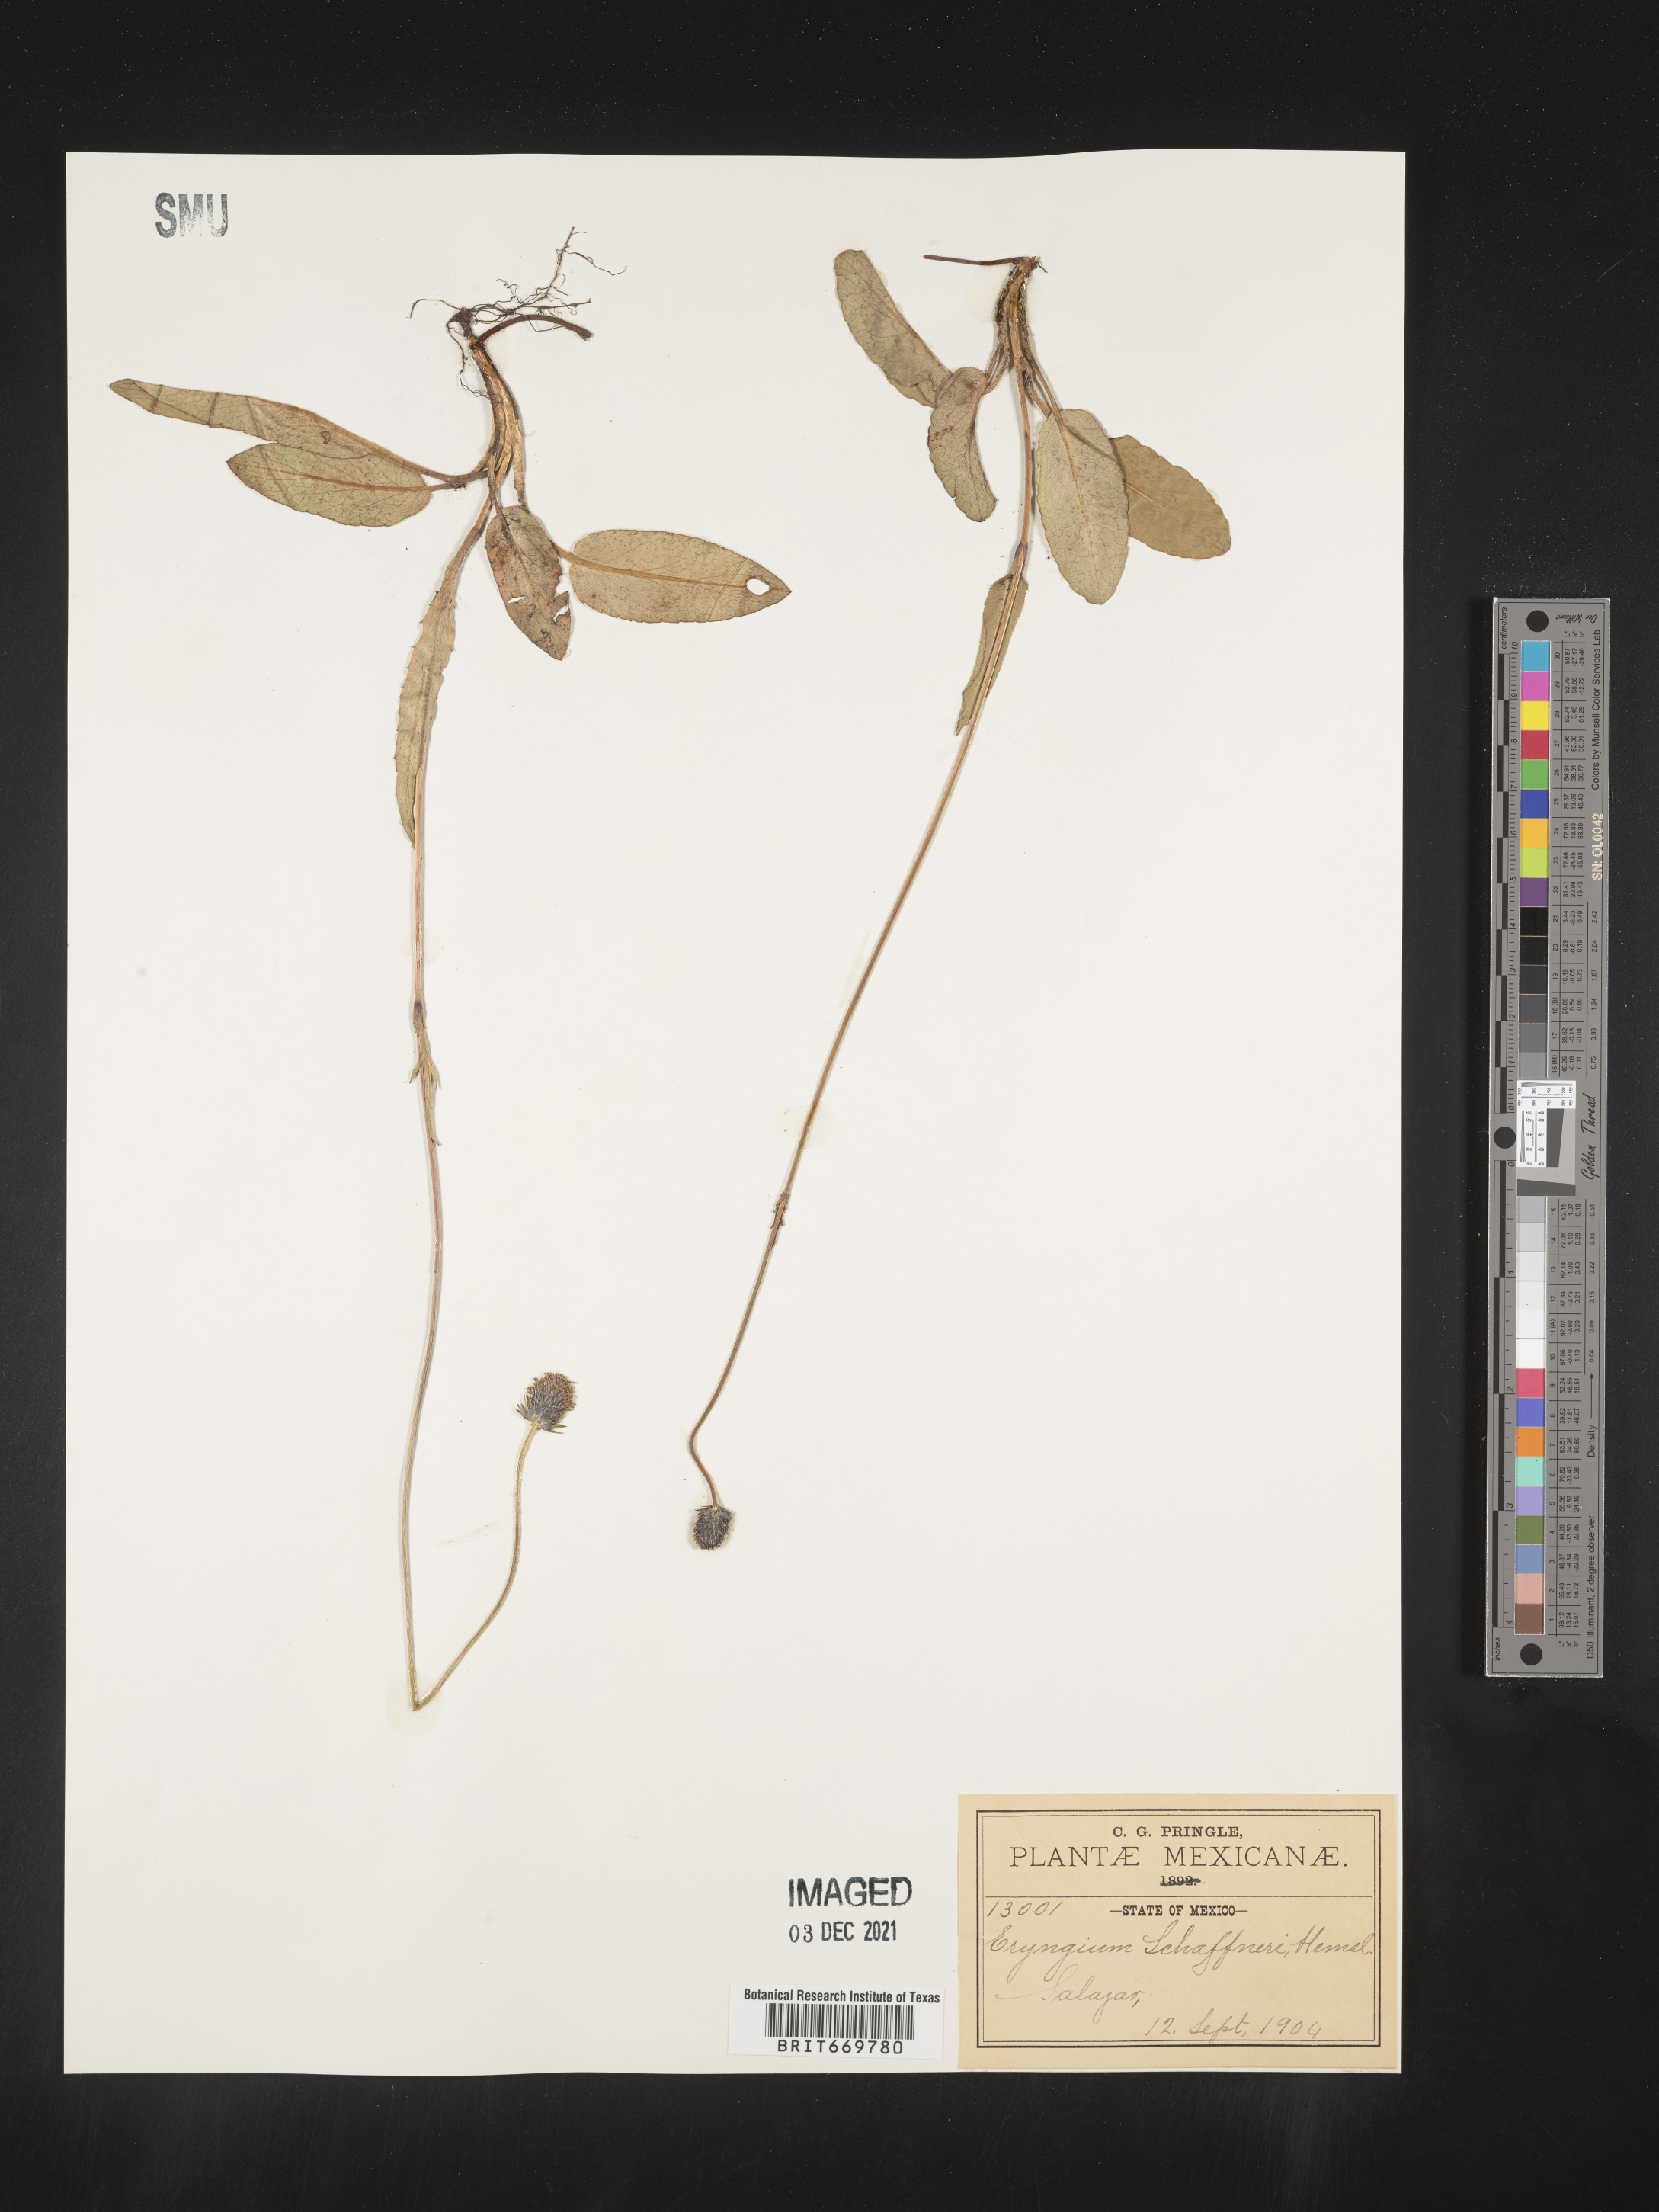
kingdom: Plantae
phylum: Tracheophyta
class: Magnoliopsida
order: Apiales
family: Apiaceae
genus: Eryngium
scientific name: Eryngium
